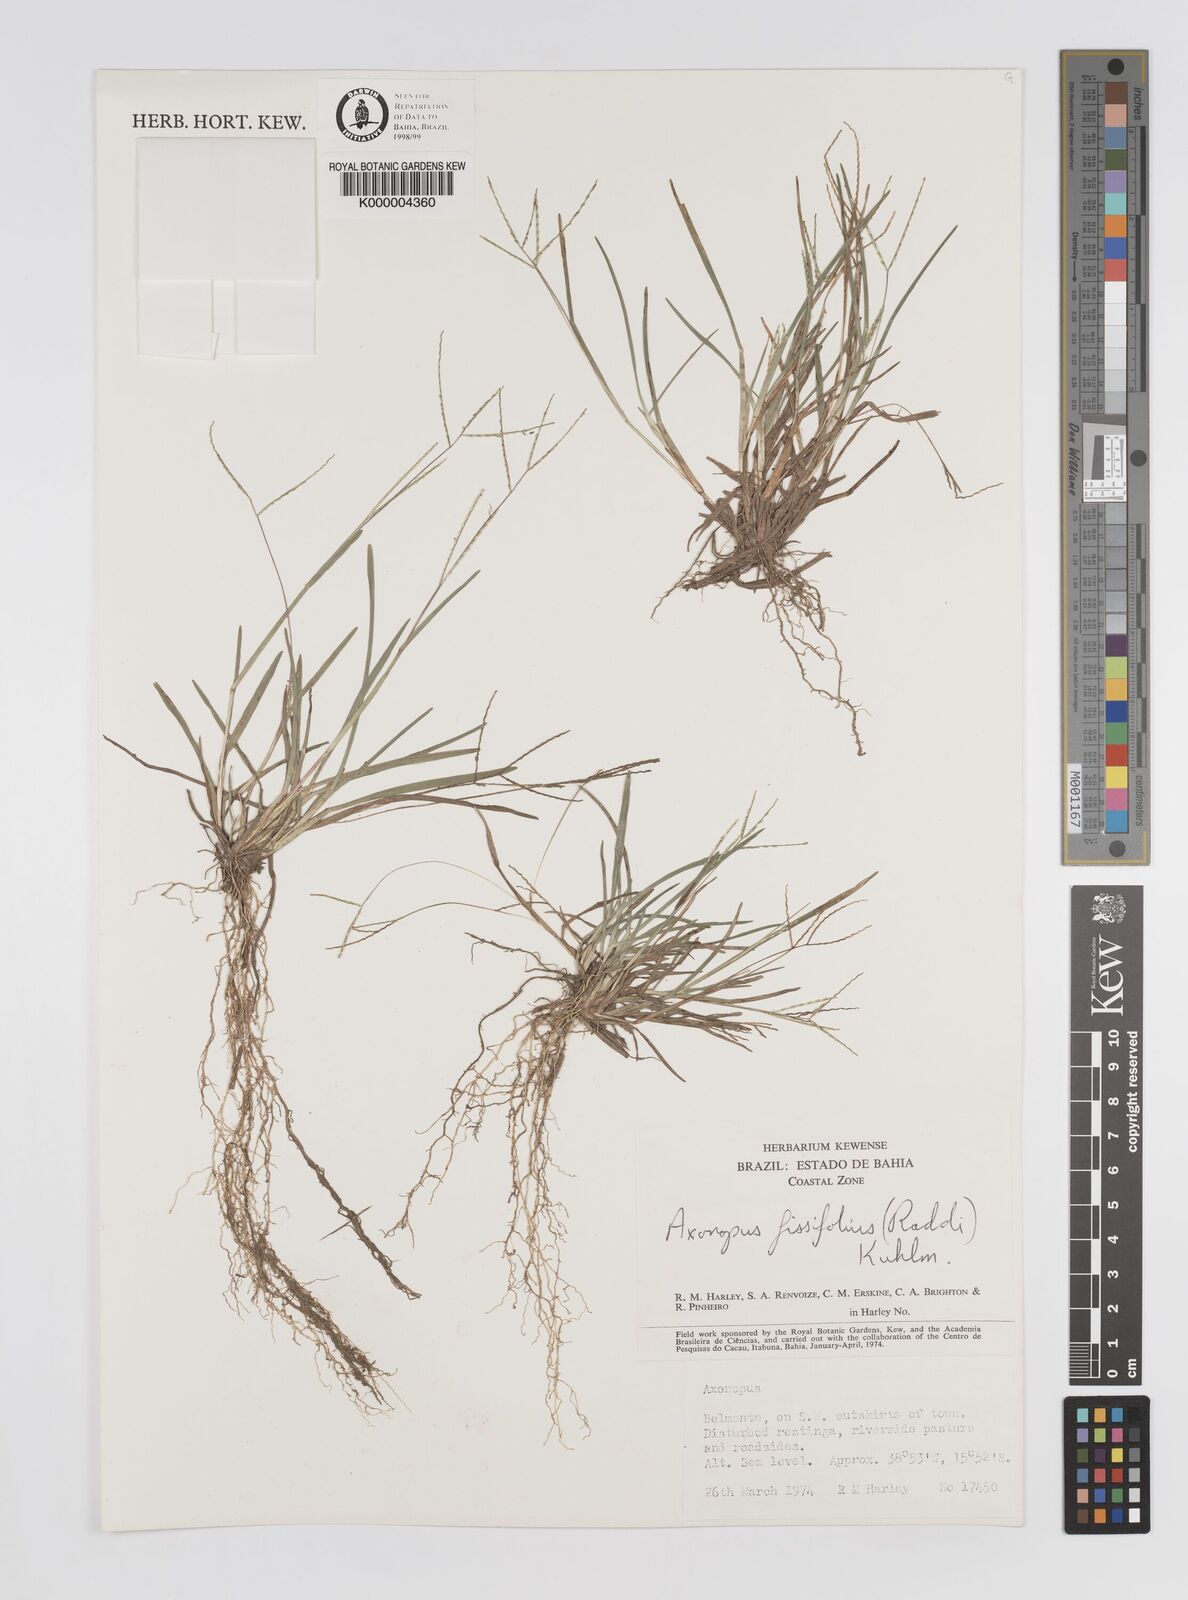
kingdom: Plantae
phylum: Tracheophyta
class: Liliopsida
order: Poales
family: Poaceae
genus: Axonopus
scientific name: Axonopus fissifolius
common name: Common carpetgrass
